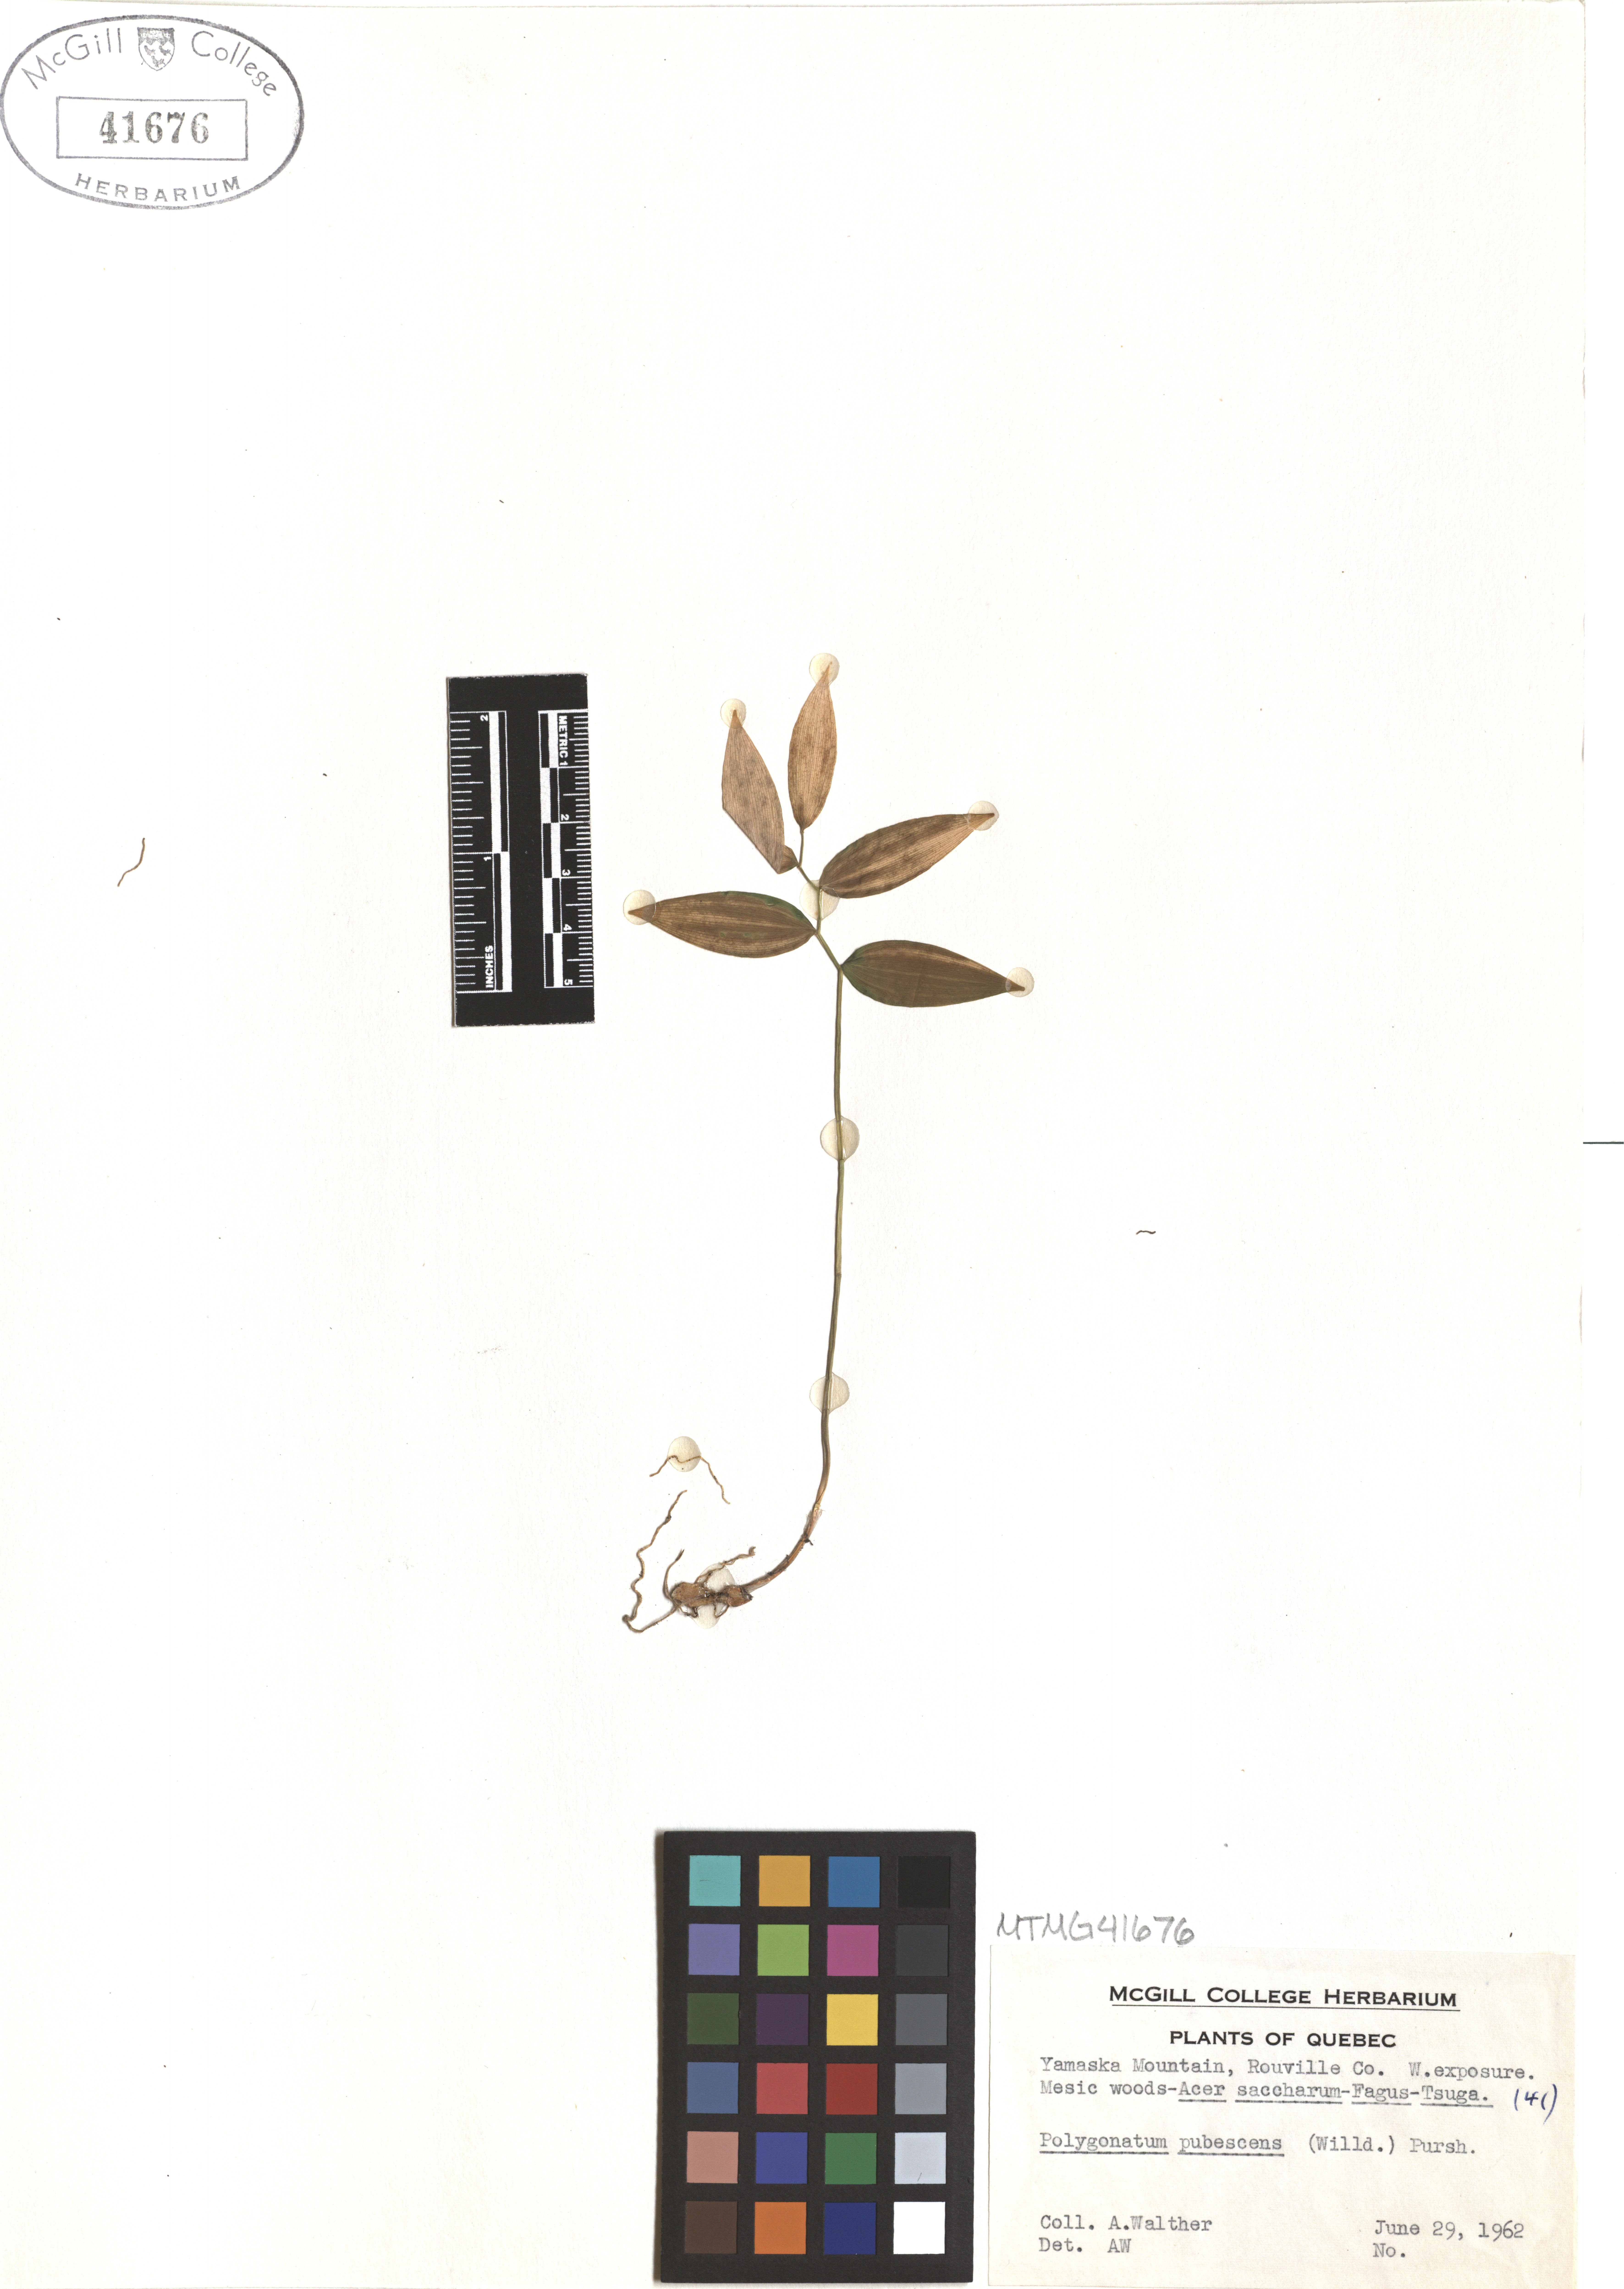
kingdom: Plantae
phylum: Tracheophyta
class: Liliopsida
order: Asparagales
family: Asparagaceae
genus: Polygonatum
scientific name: Polygonatum pubescens
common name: Downy solomon's seal
